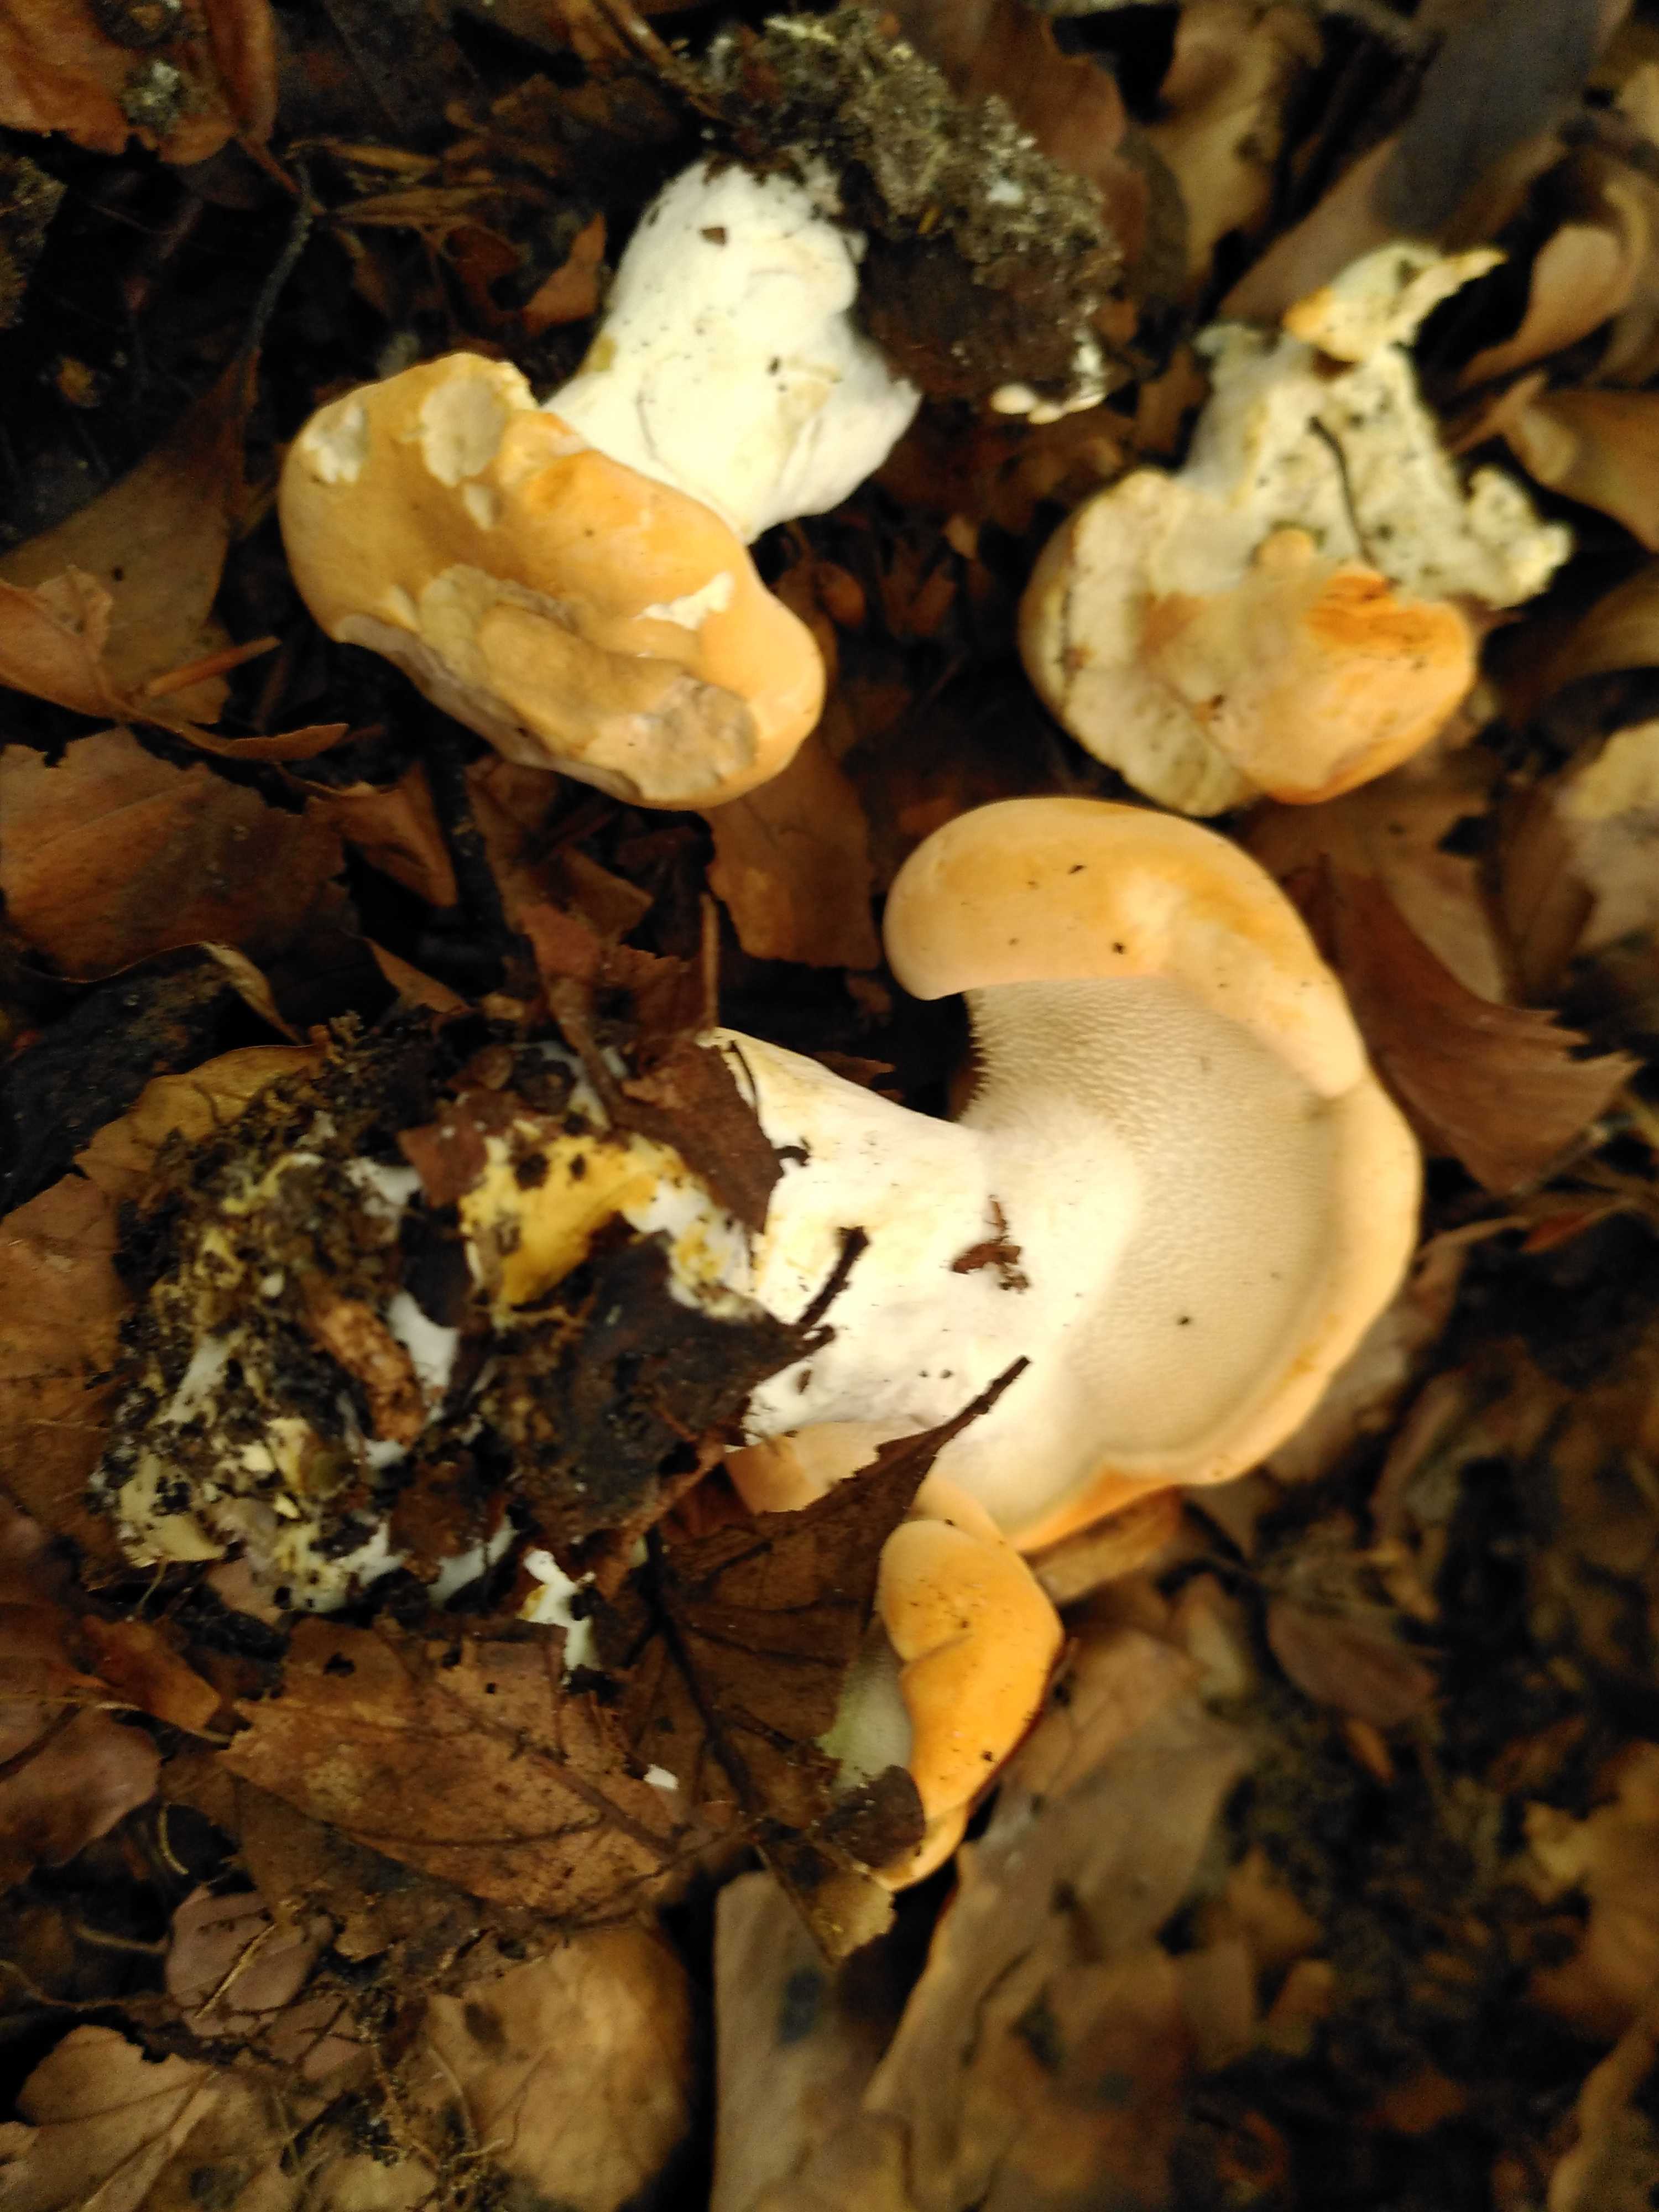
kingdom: Fungi
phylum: Basidiomycota
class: Agaricomycetes
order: Cantharellales
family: Hydnaceae
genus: Hydnum
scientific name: Hydnum
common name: pigsvamp
